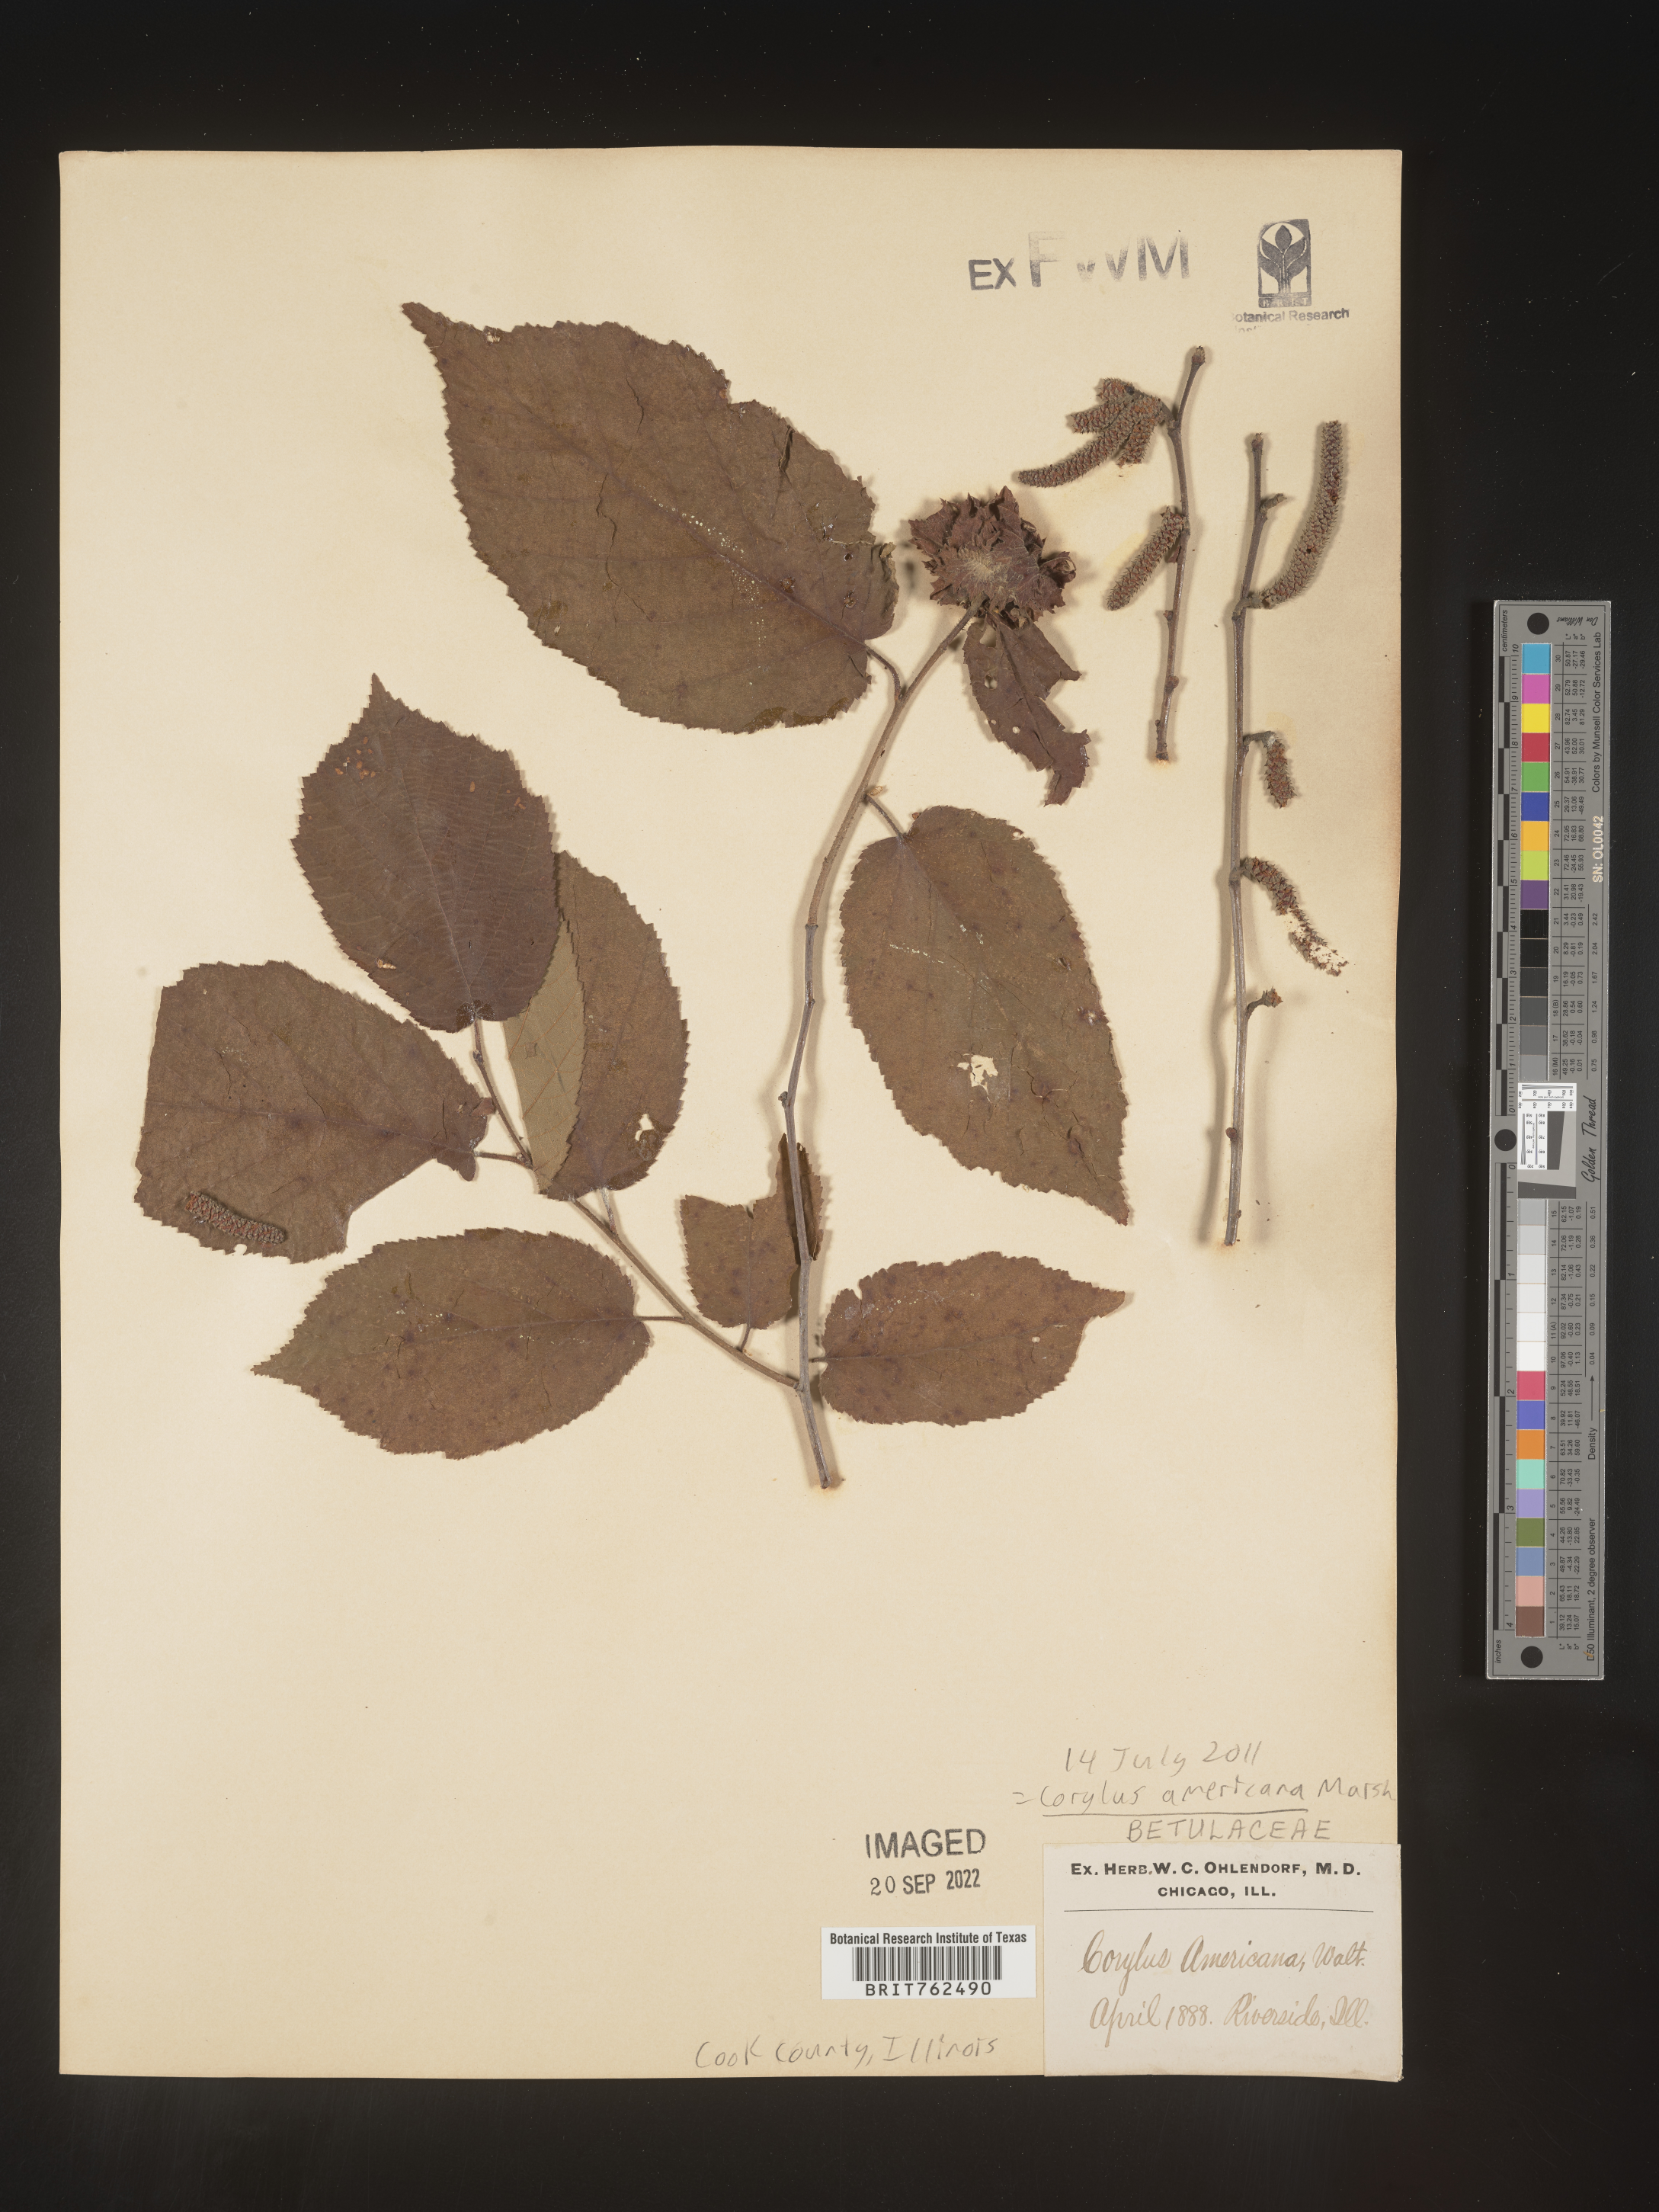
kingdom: Plantae
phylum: Tracheophyta
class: Magnoliopsida
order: Fagales
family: Betulaceae
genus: Corylus
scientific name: Corylus americana
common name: American hazel
